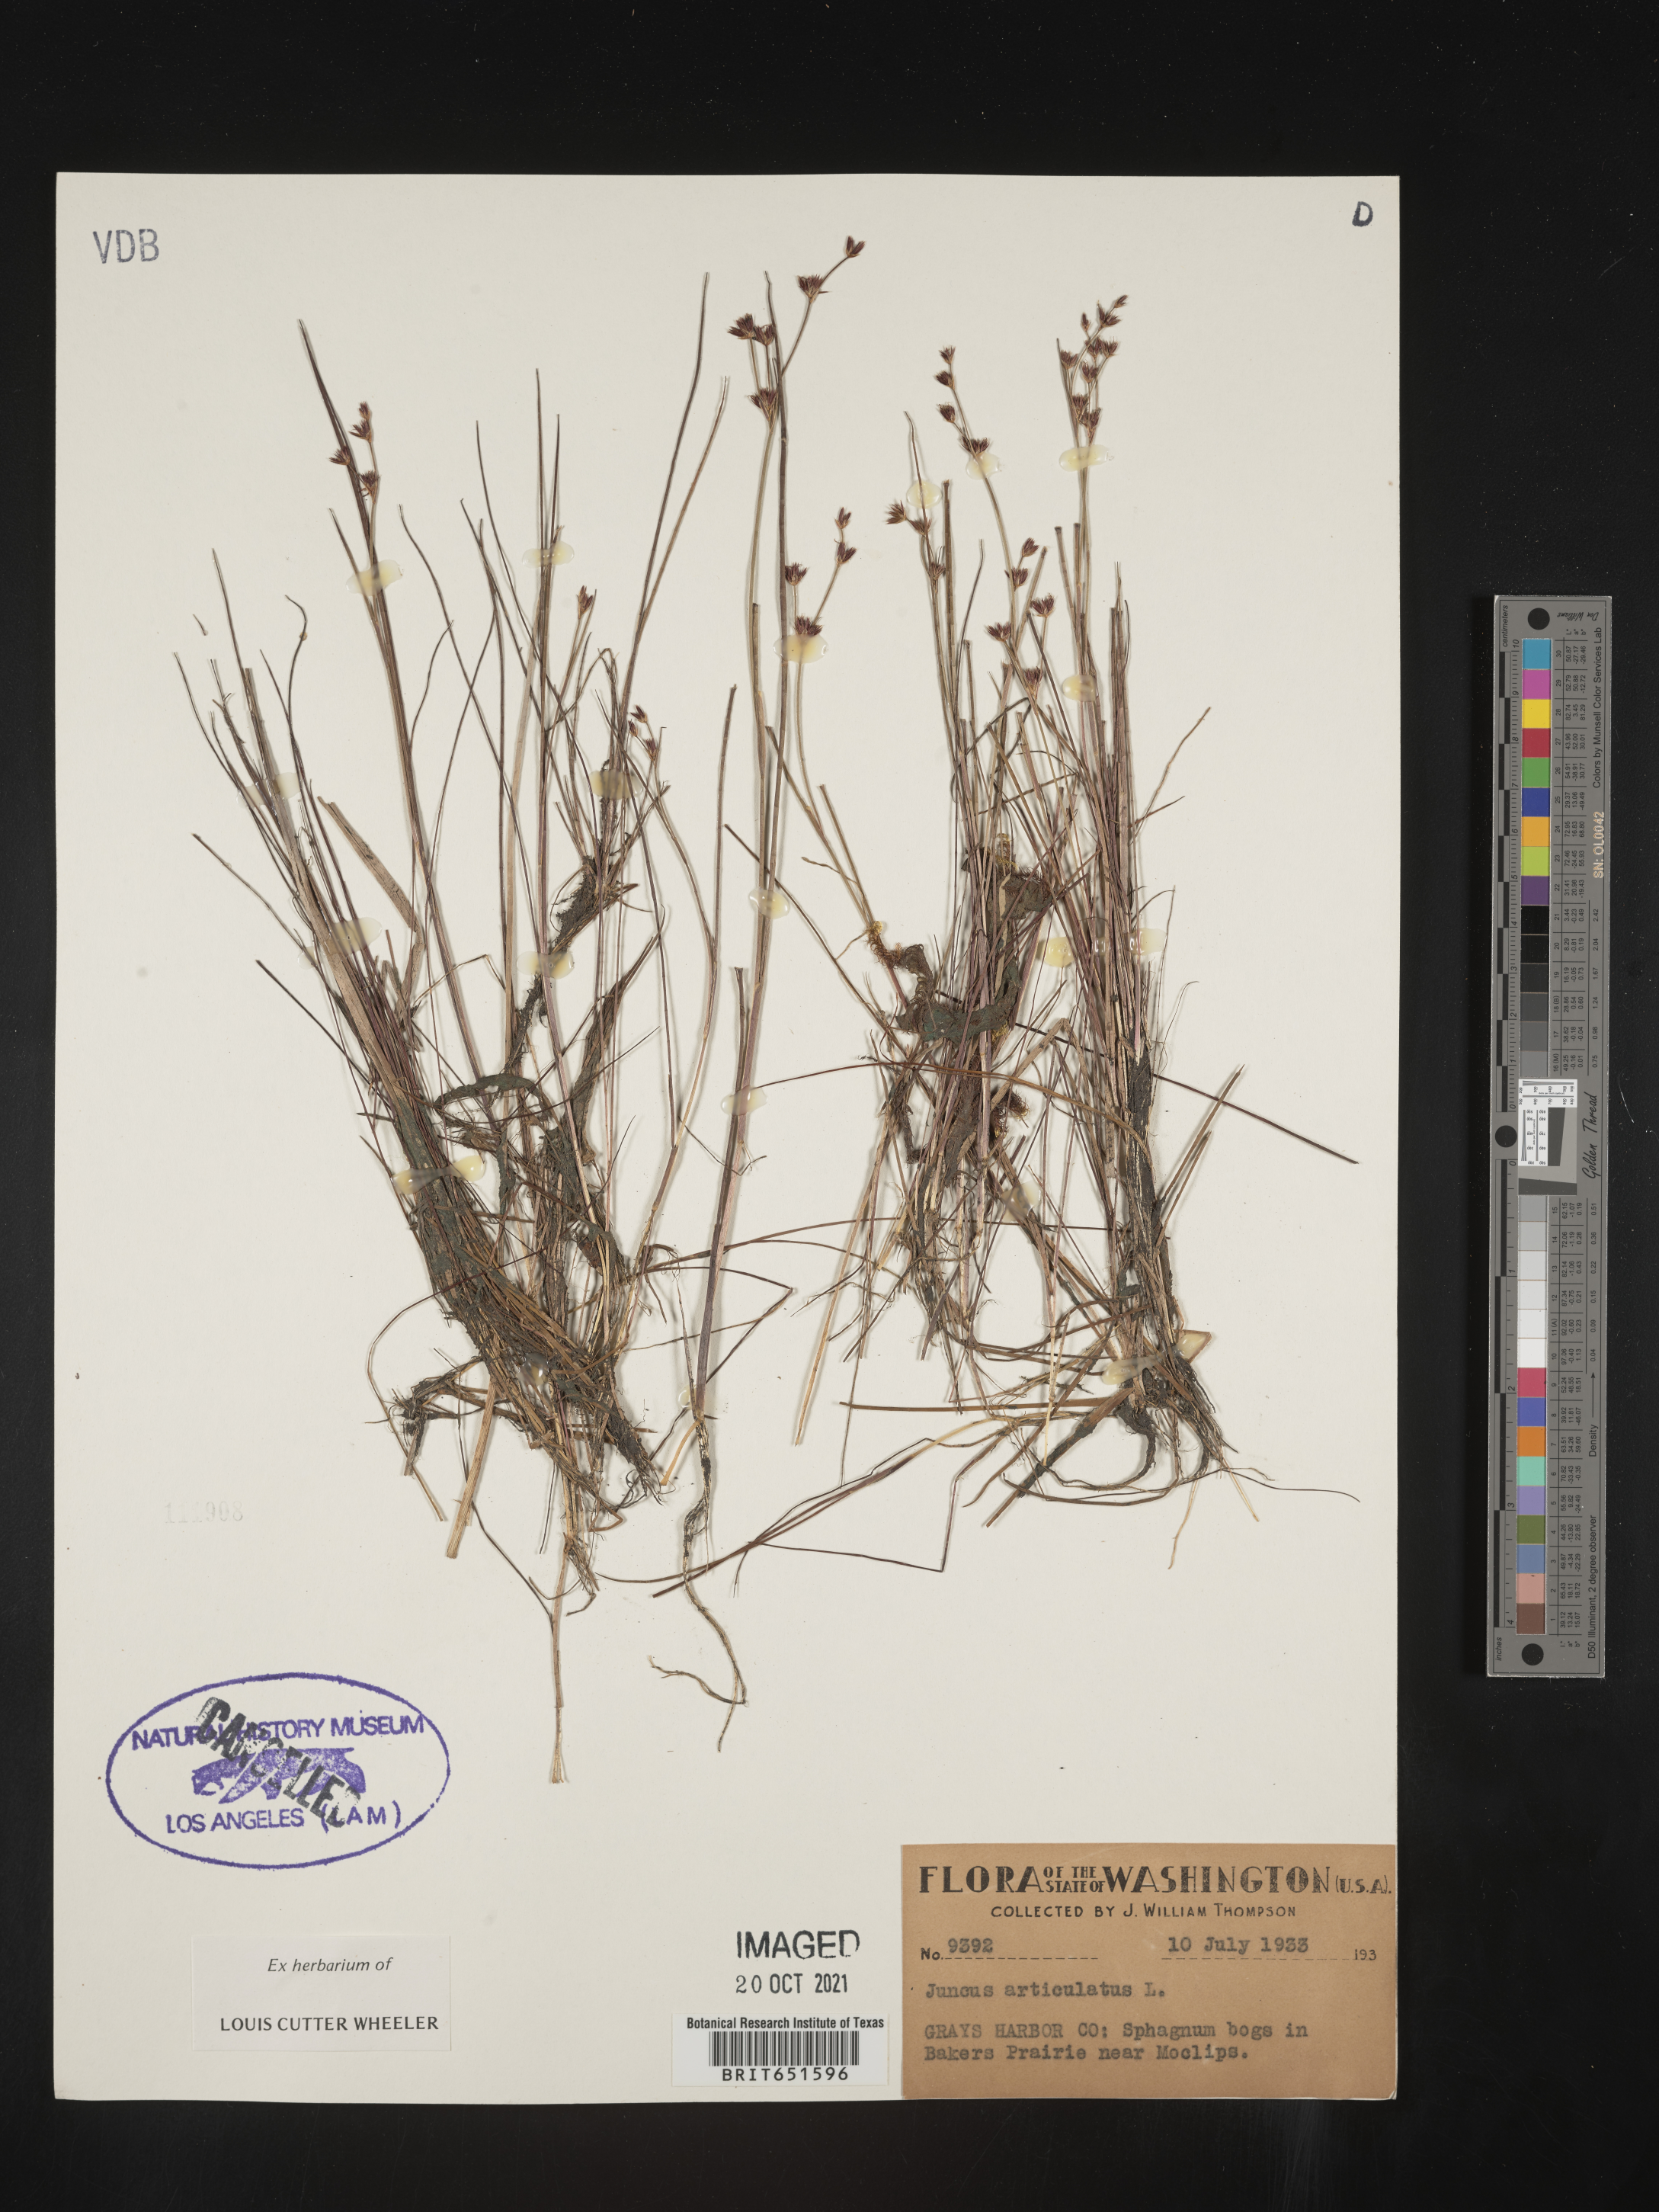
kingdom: Plantae
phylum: Tracheophyta
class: Liliopsida
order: Poales
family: Juncaceae
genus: Juncus
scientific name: Juncus articulatus
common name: Jointed rush
